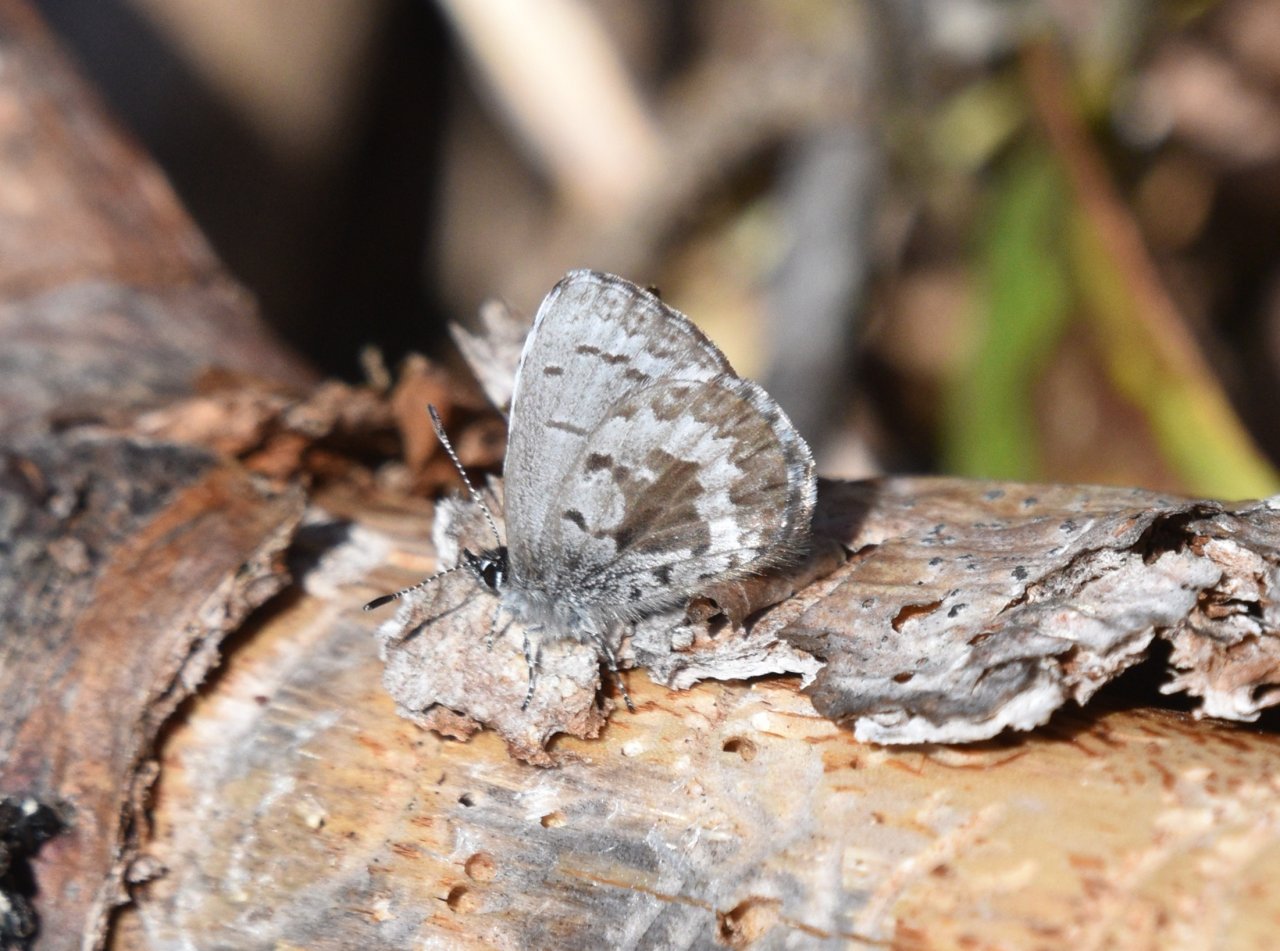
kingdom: Animalia
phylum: Arthropoda
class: Insecta
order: Lepidoptera
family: Lycaenidae
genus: Celastrina
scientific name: Celastrina lucia
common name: Northern Spring Azure
